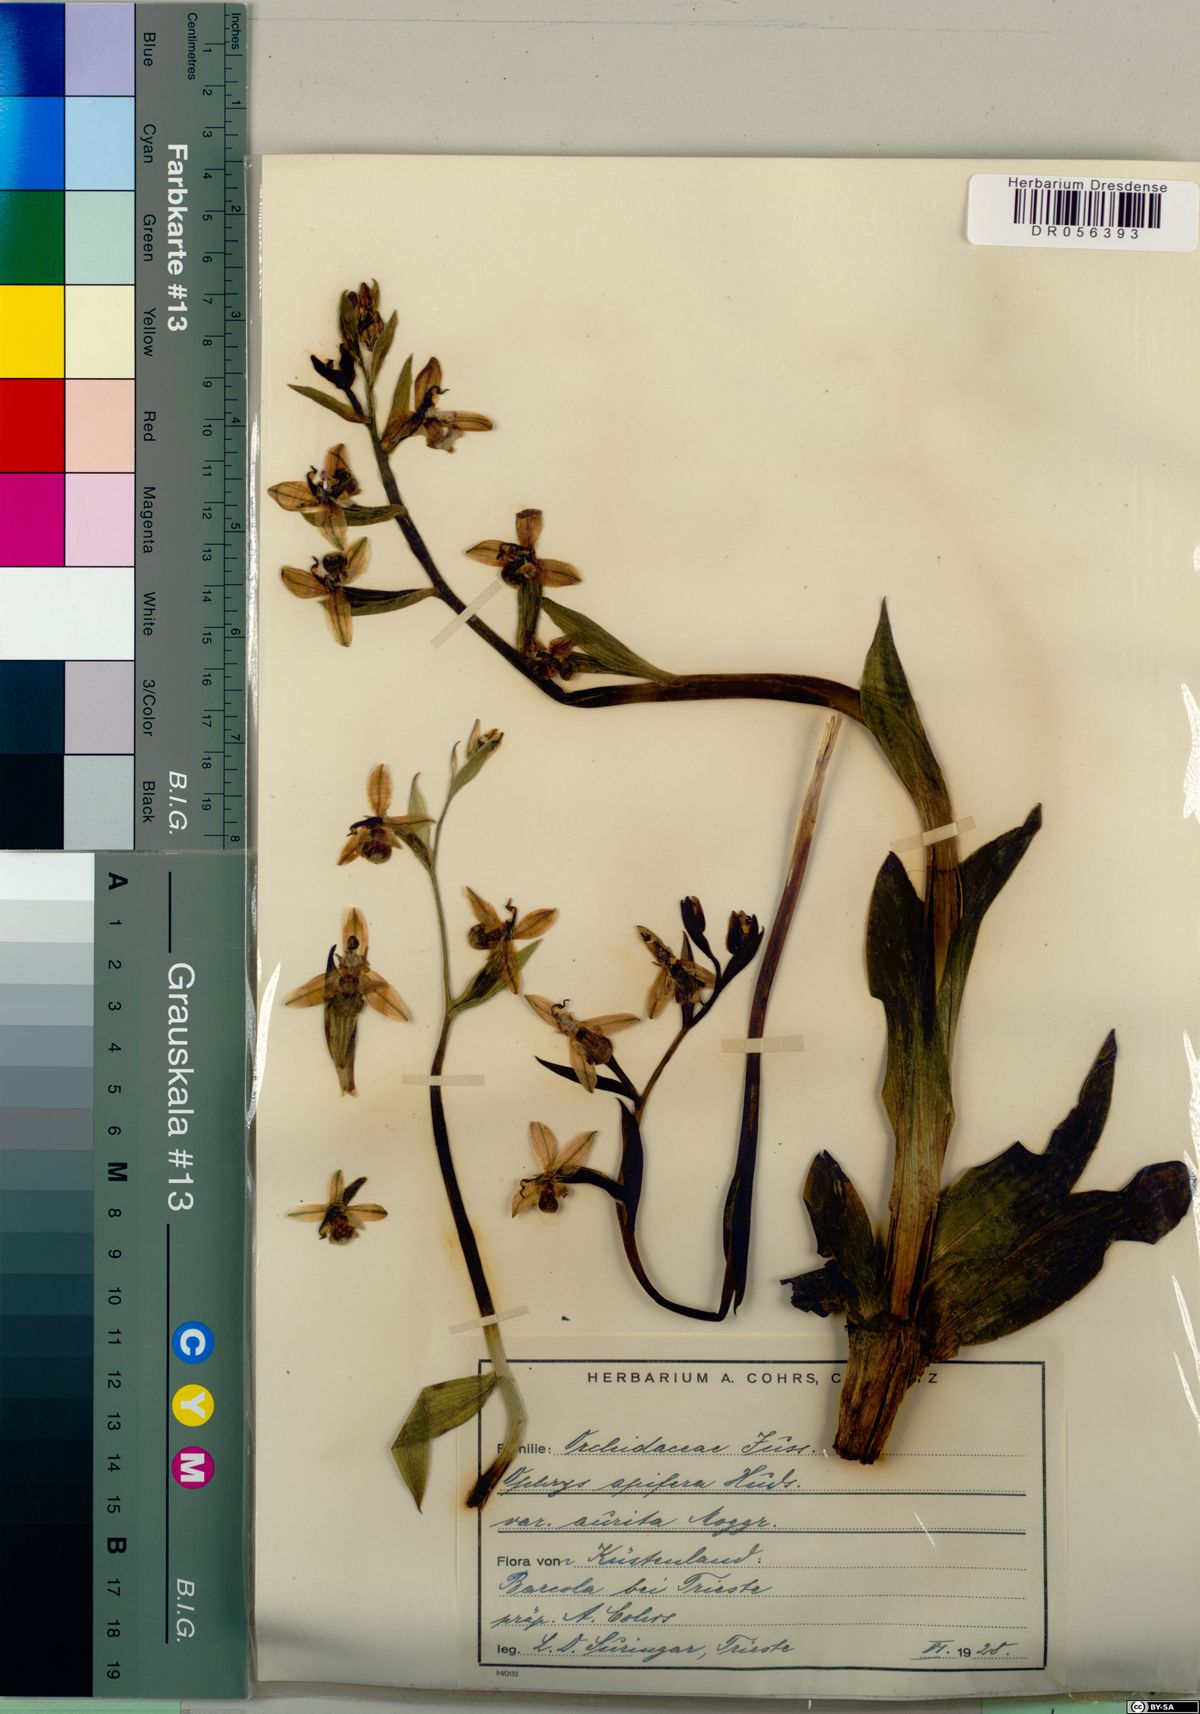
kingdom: Plantae
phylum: Tracheophyta
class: Liliopsida
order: Asparagales
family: Orchidaceae
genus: Ophrys
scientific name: Ophrys apifera
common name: Bee orchid
